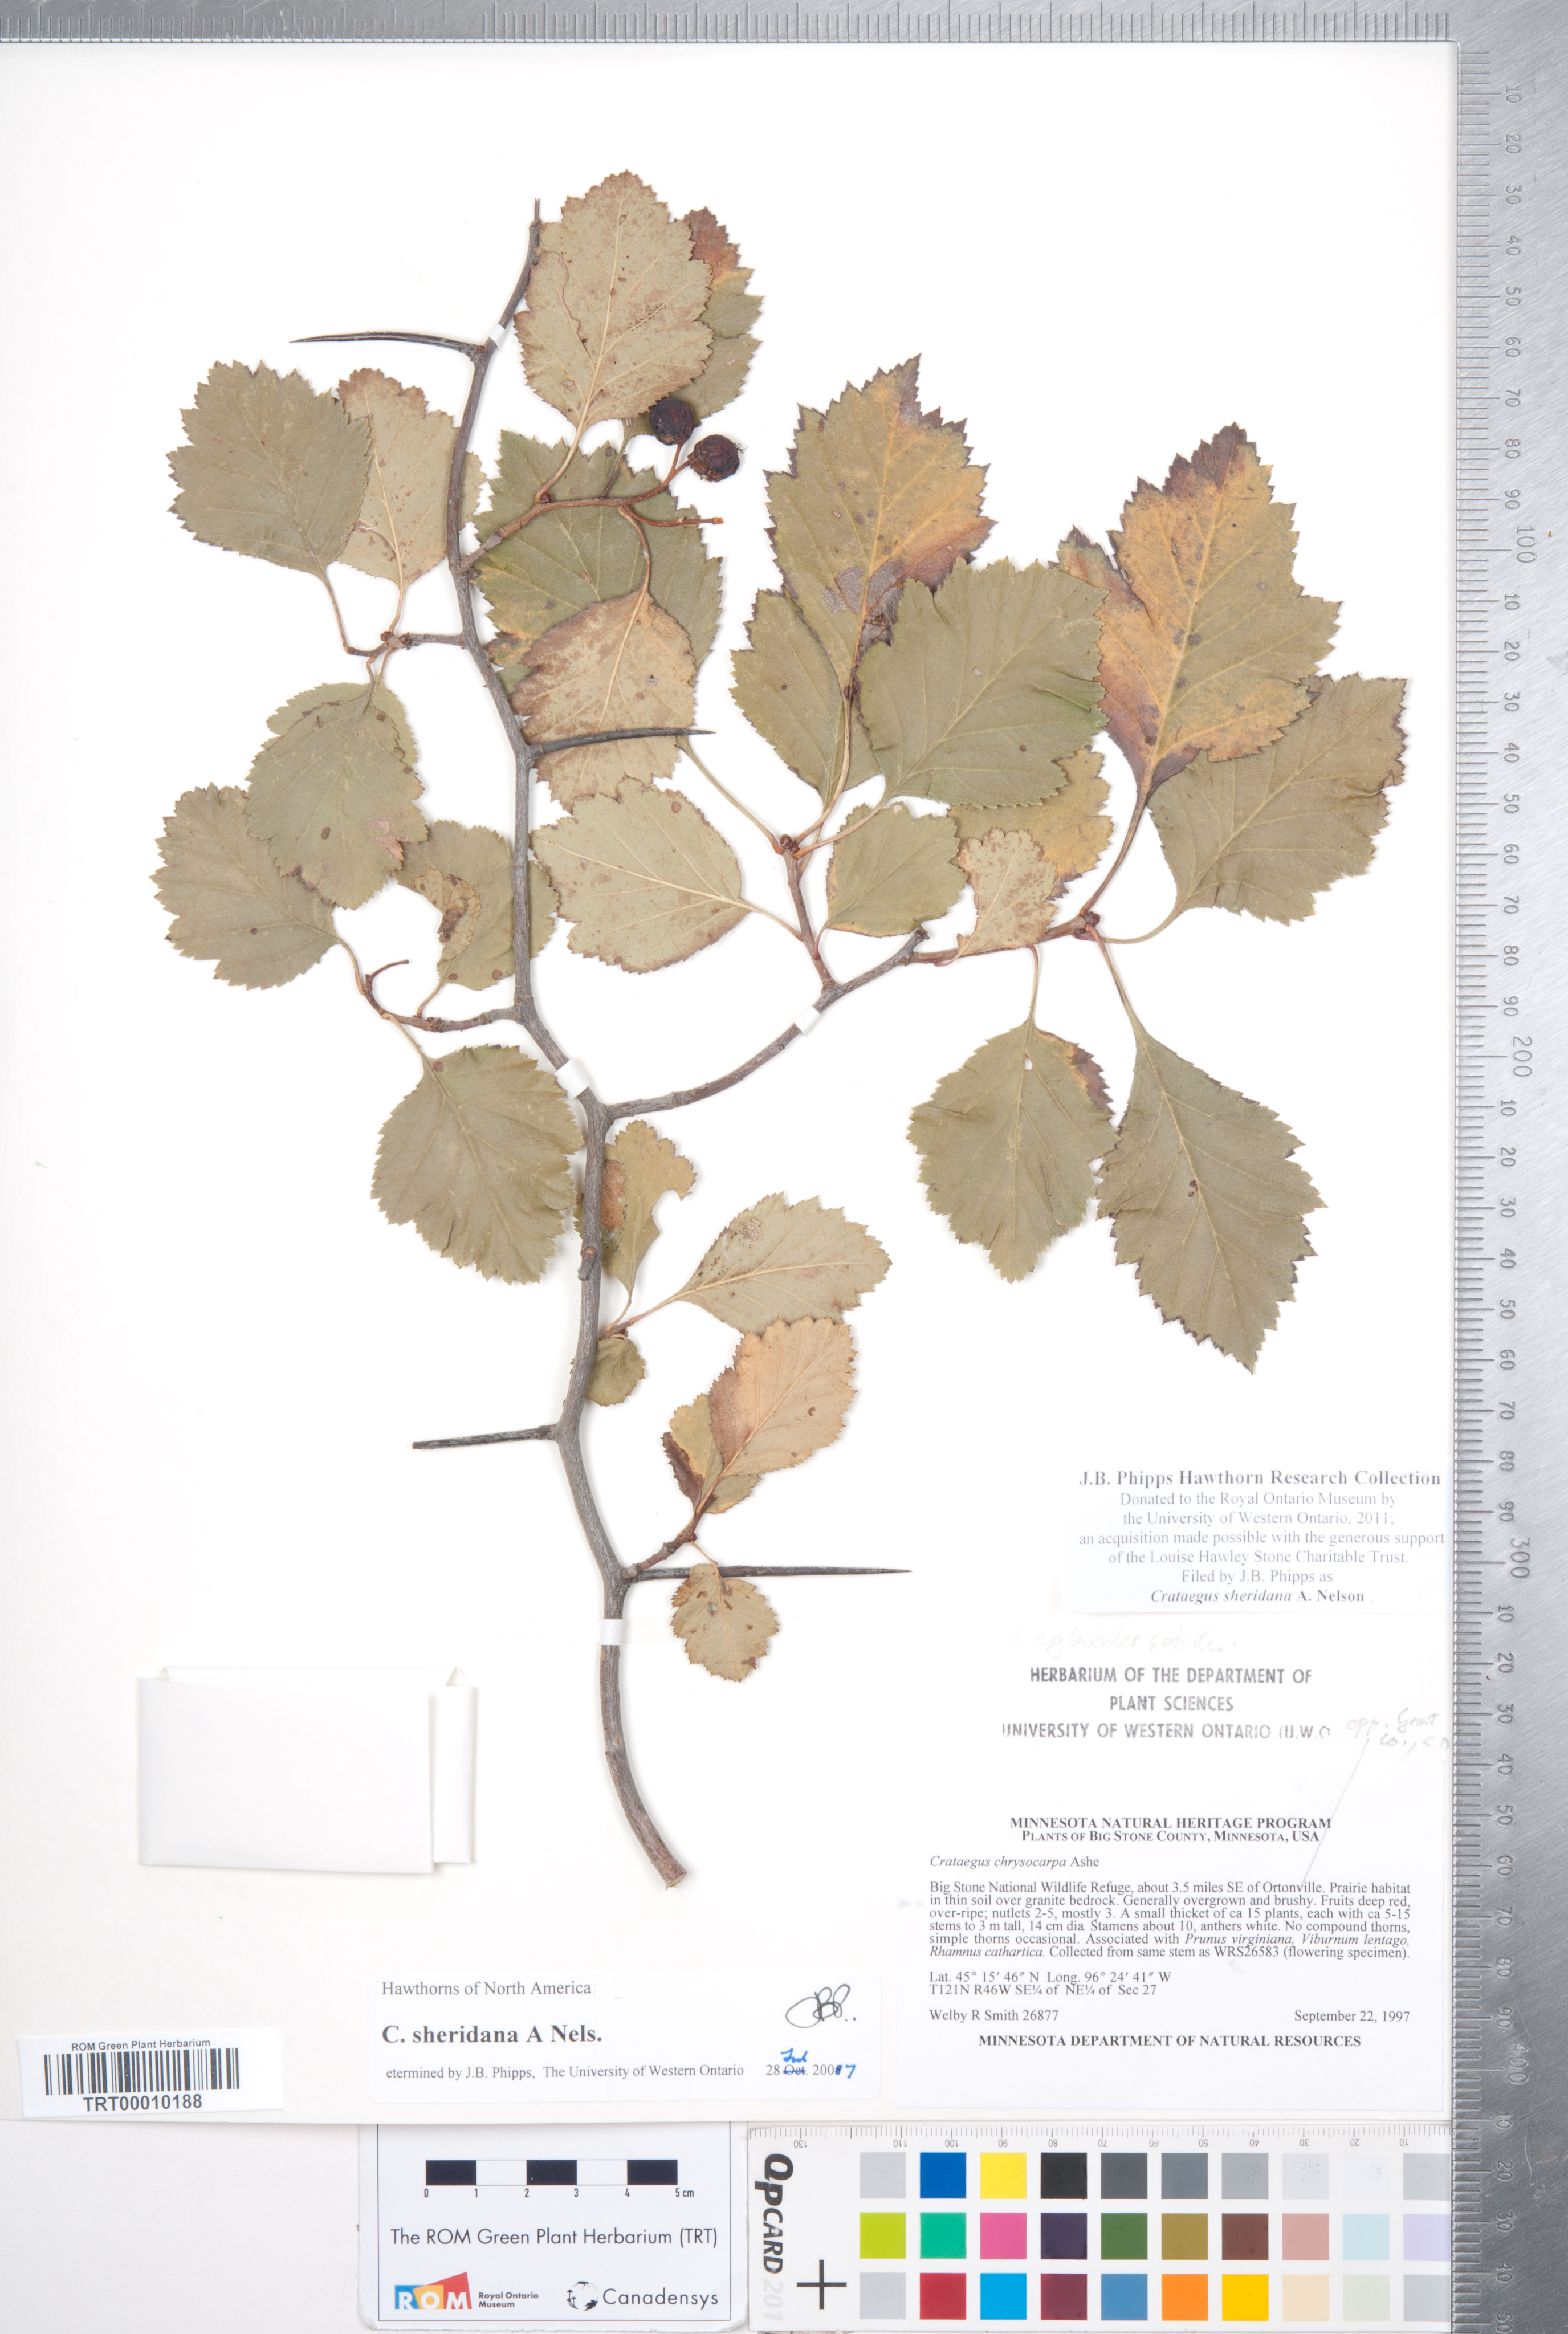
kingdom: Plantae
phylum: Tracheophyta
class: Magnoliopsida
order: Rosales
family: Rosaceae
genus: Crataegus
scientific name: Crataegus chrysocarpa
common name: Fire-berry hawthorn
